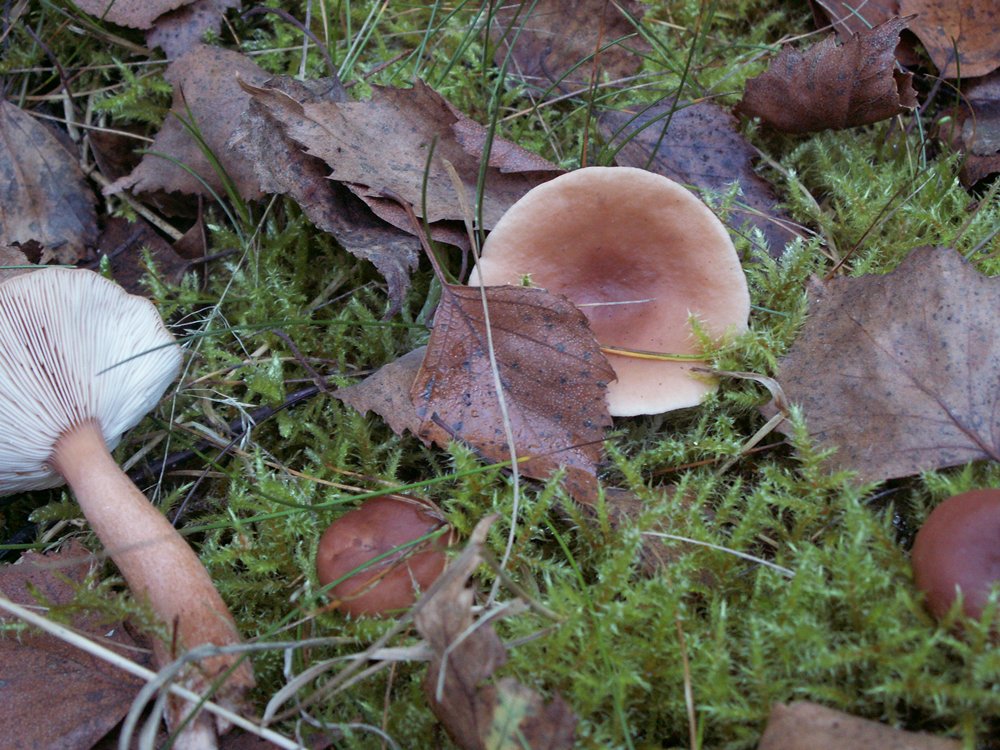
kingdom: Fungi
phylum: Basidiomycota
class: Agaricomycetes
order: Russulales
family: Russulaceae
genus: Lactarius
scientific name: Lactarius tabidus
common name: rynket mælkehat
